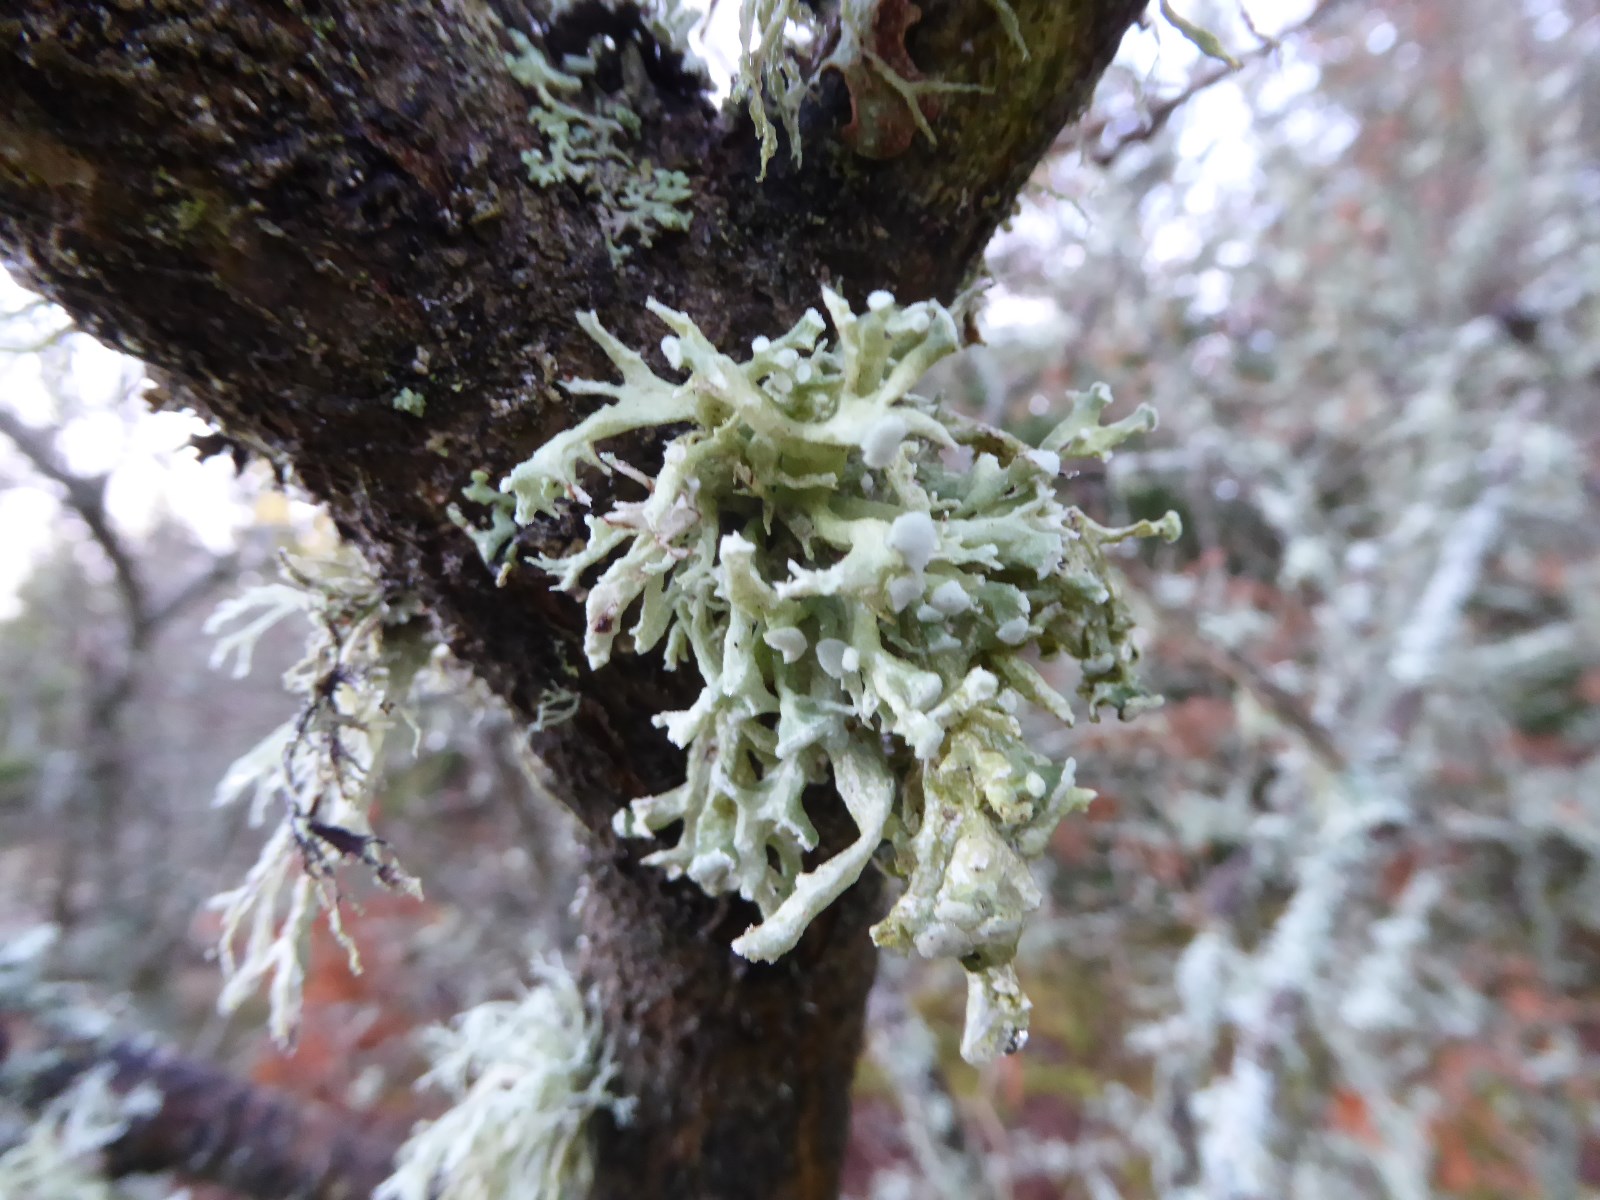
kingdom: Fungi
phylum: Ascomycota
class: Lecanoromycetes
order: Lecanorales
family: Ramalinaceae
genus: Ramalina
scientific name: Ramalina fastigiata
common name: tue-grenlav
